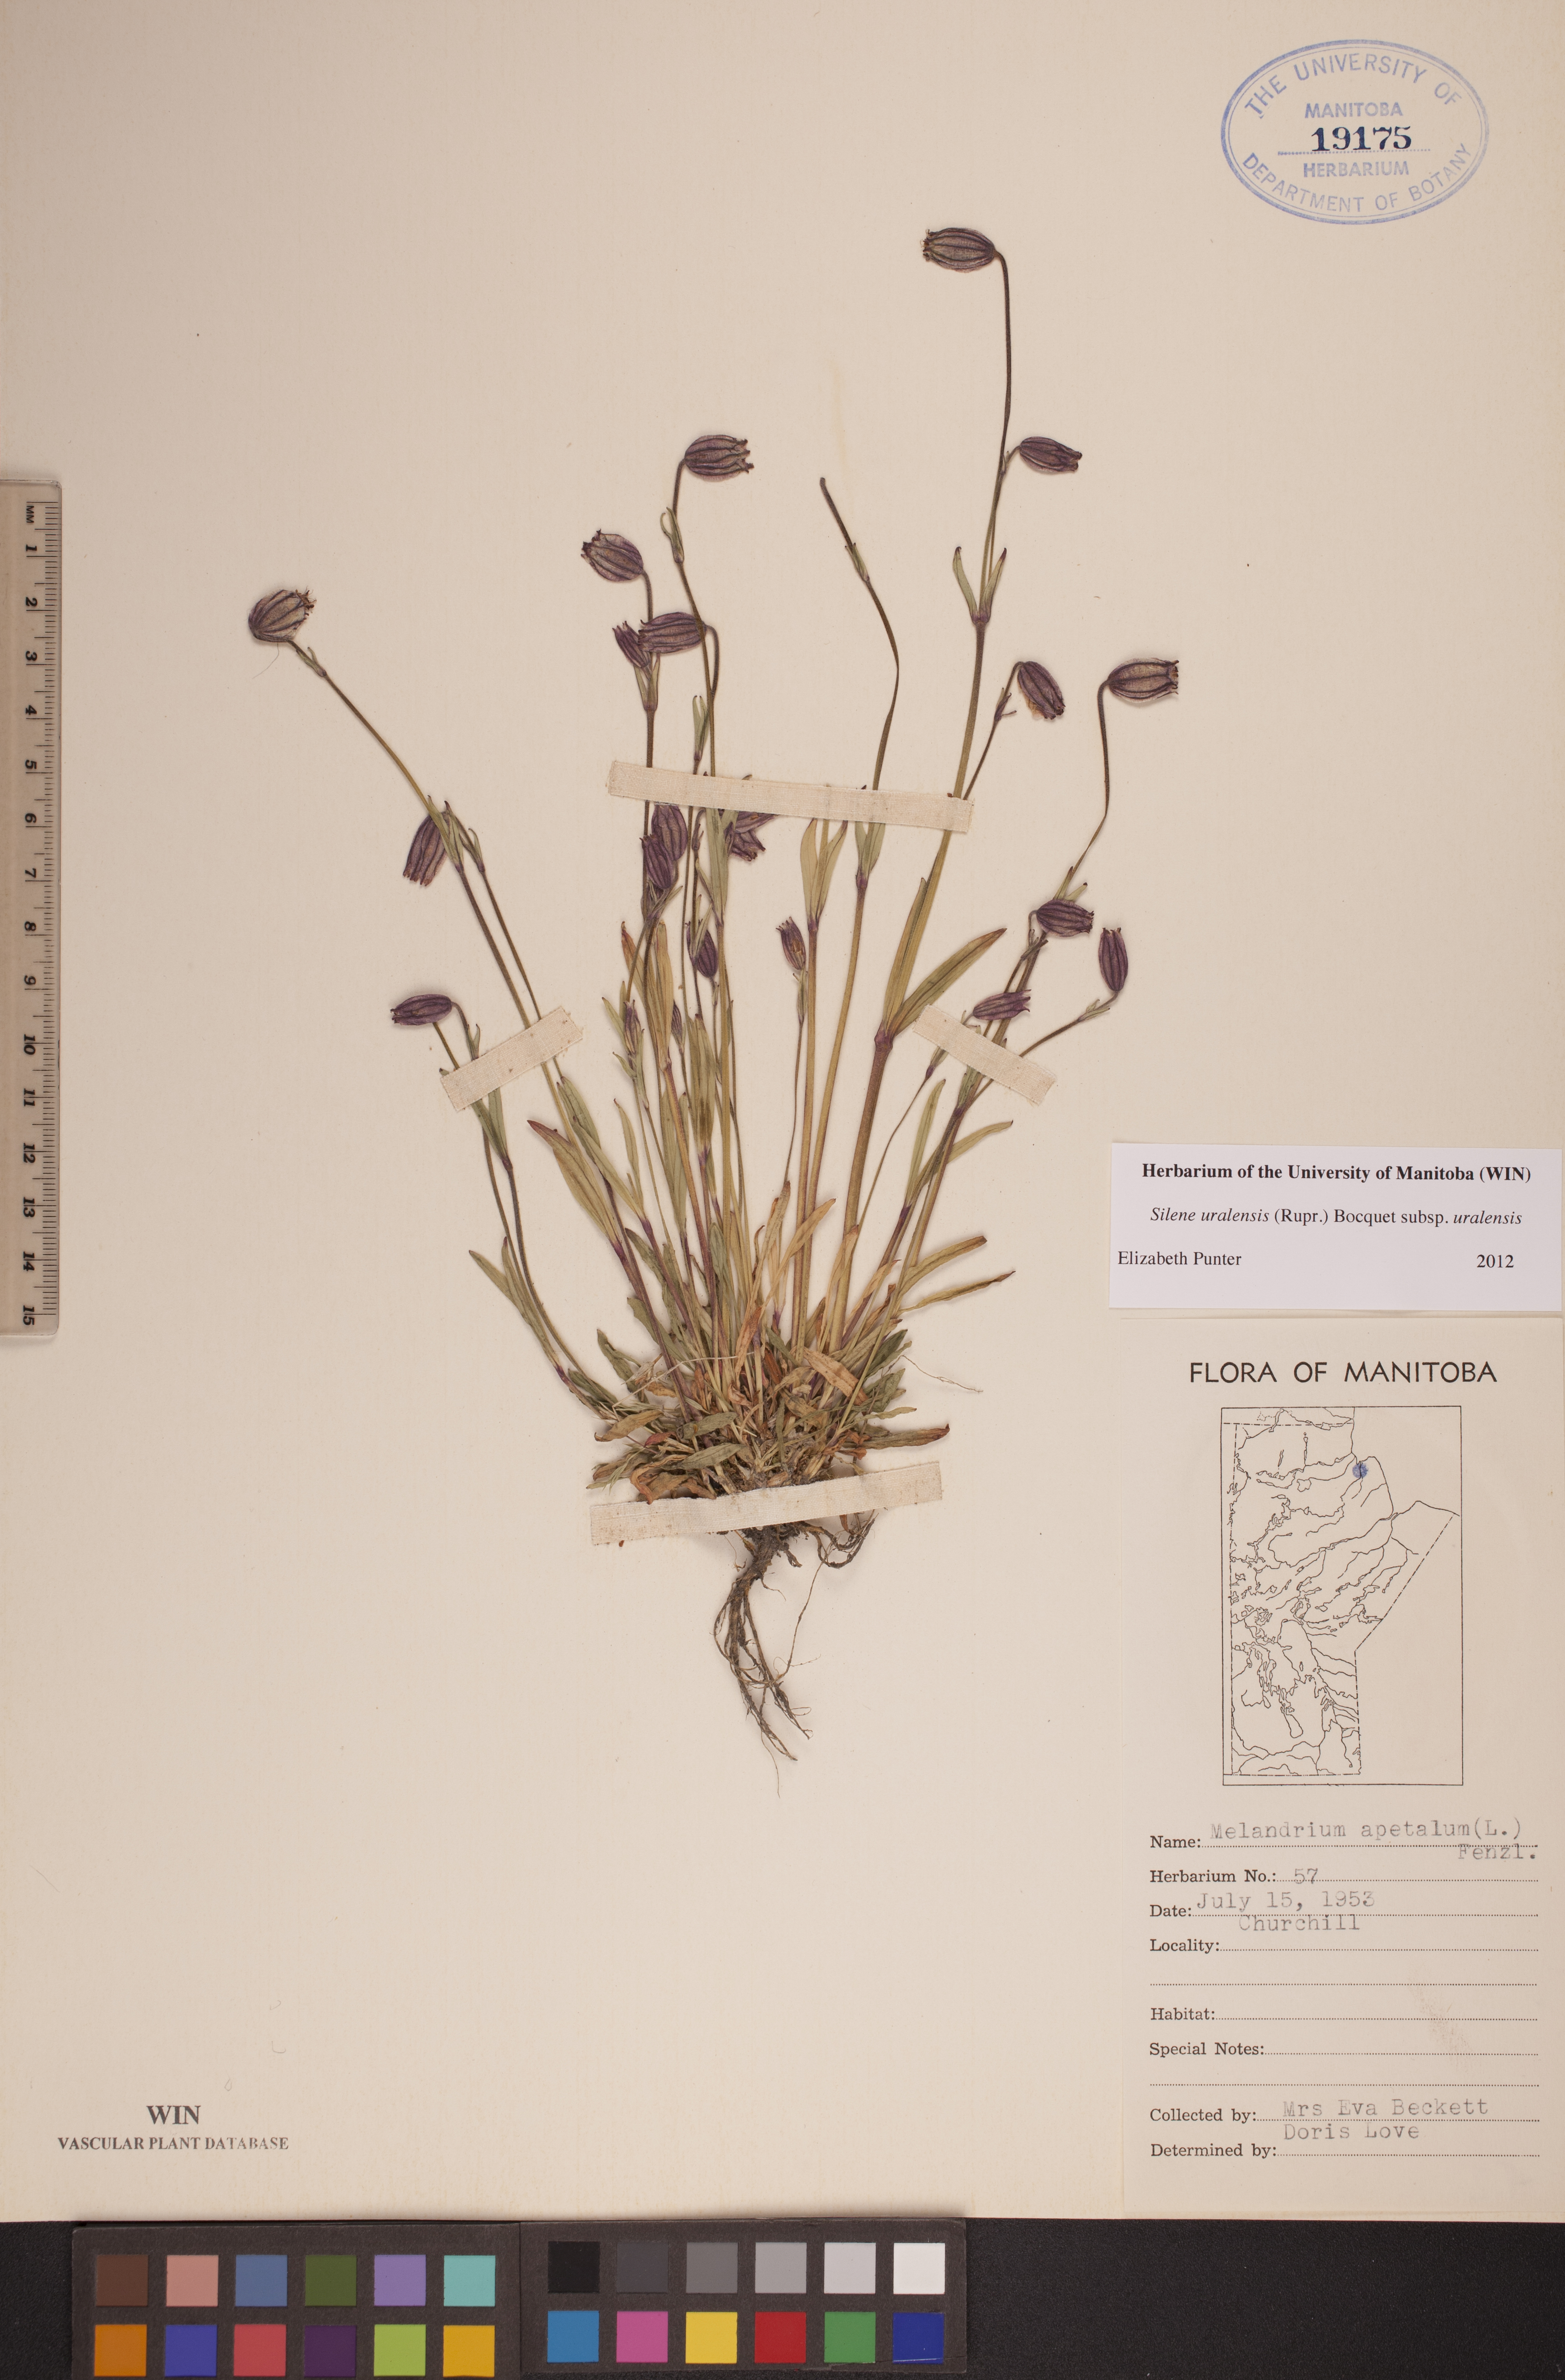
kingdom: Plantae
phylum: Tracheophyta
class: Magnoliopsida
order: Caryophyllales
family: Caryophyllaceae
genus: Silene
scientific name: Silene uralensis
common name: Nodding campion
